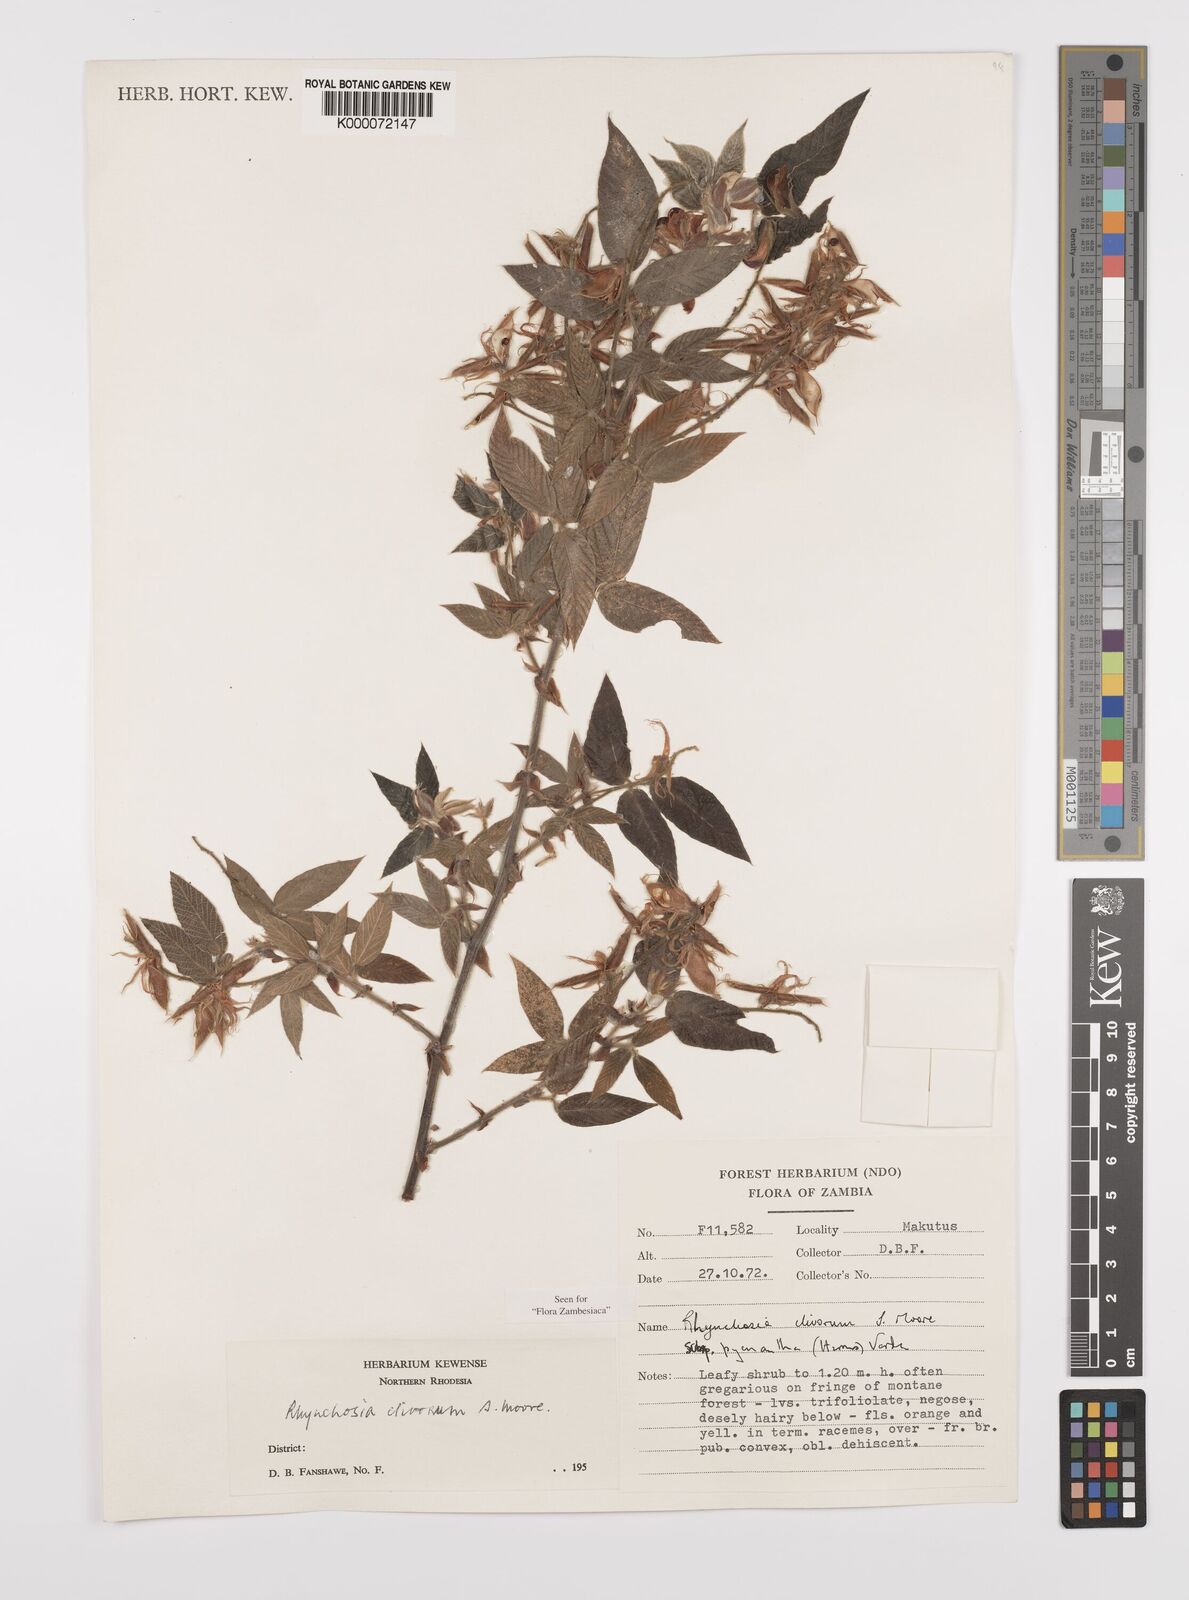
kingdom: Plantae
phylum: Tracheophyta
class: Magnoliopsida
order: Fabales
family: Fabaceae
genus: Rhynchosia
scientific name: Rhynchosia clivorum
